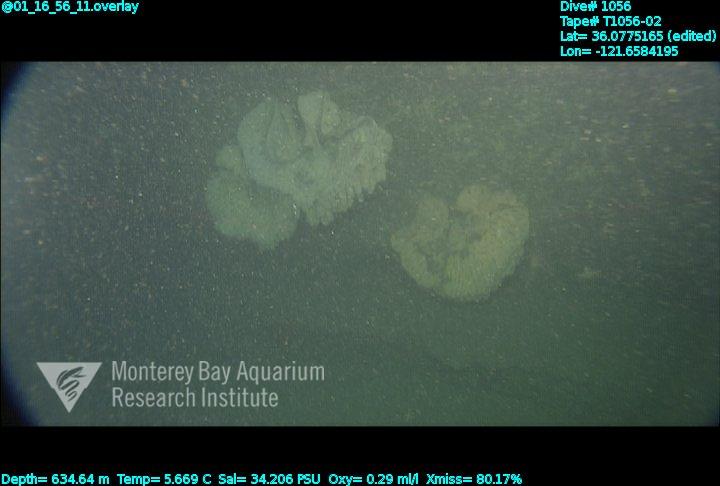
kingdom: Animalia
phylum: Porifera
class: Hexactinellida
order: Sceptrulophora
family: Aphrocallistidae
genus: Heterochone
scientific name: Heterochone
